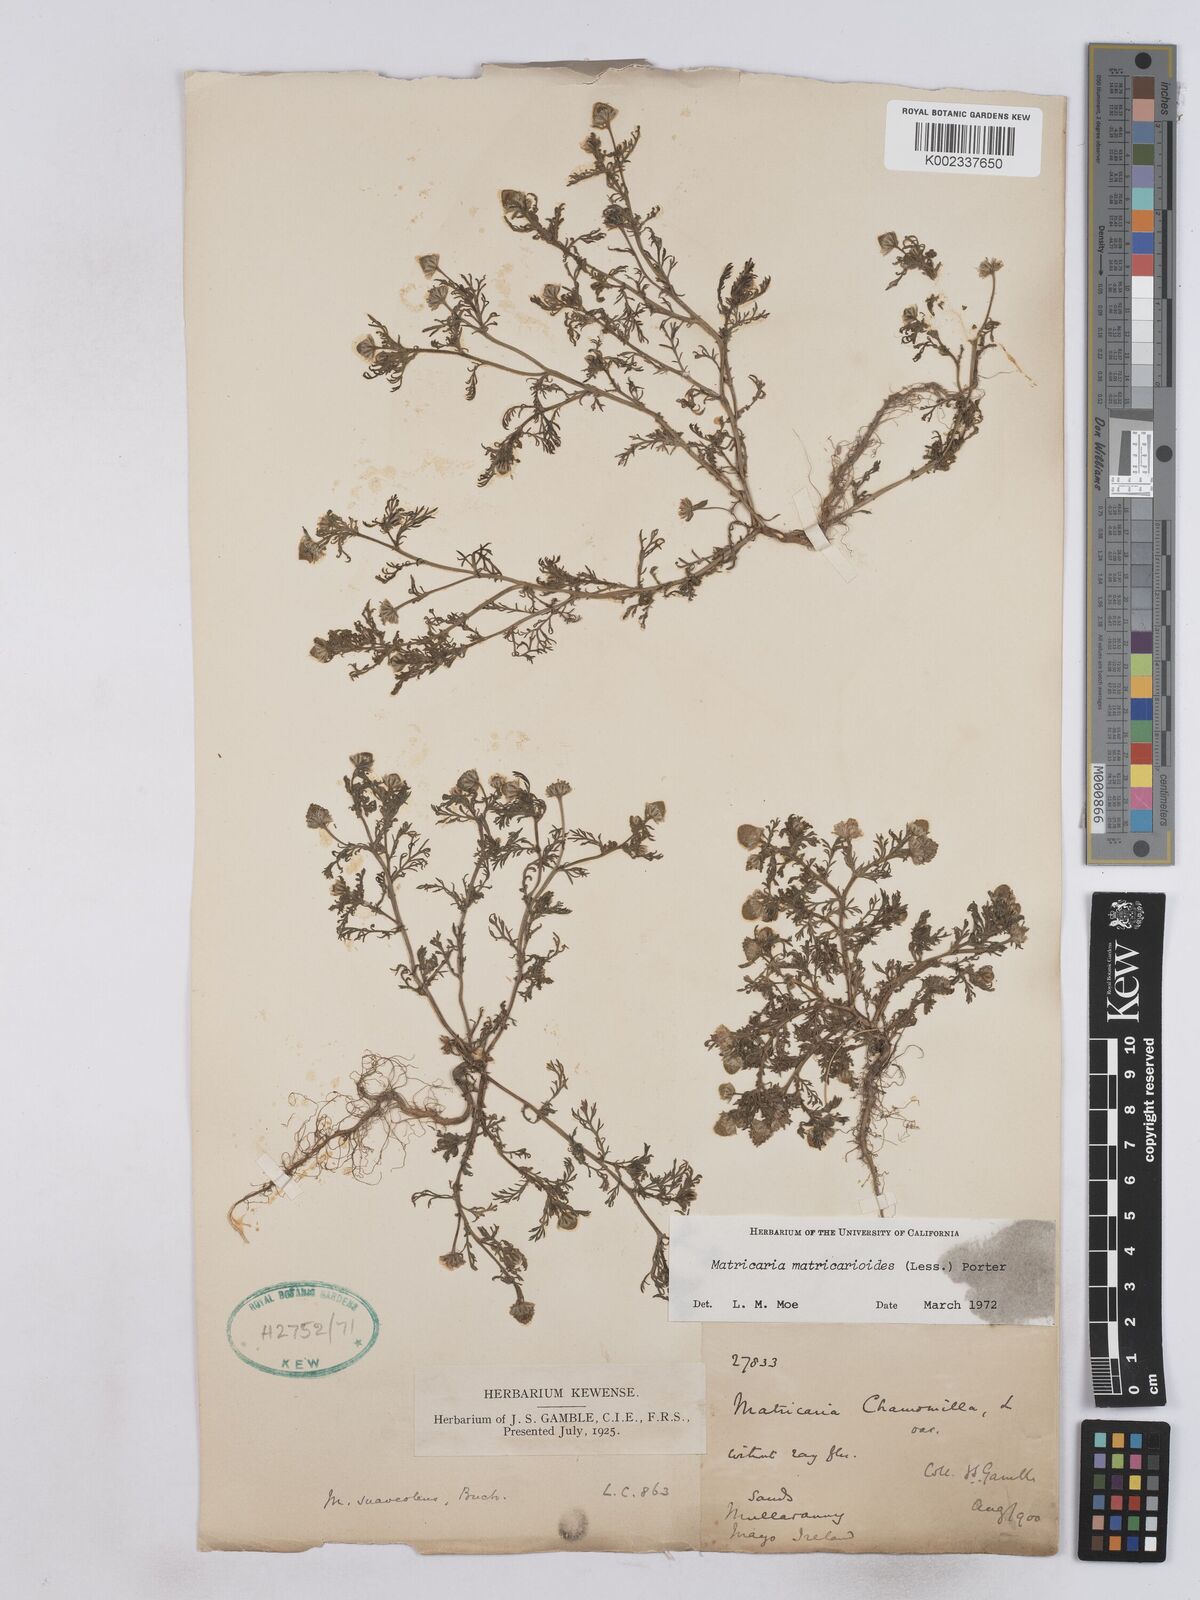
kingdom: Plantae
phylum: Tracheophyta
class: Magnoliopsida
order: Asterales
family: Asteraceae
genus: Matricaria
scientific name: Matricaria discoidea
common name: Disc mayweed
